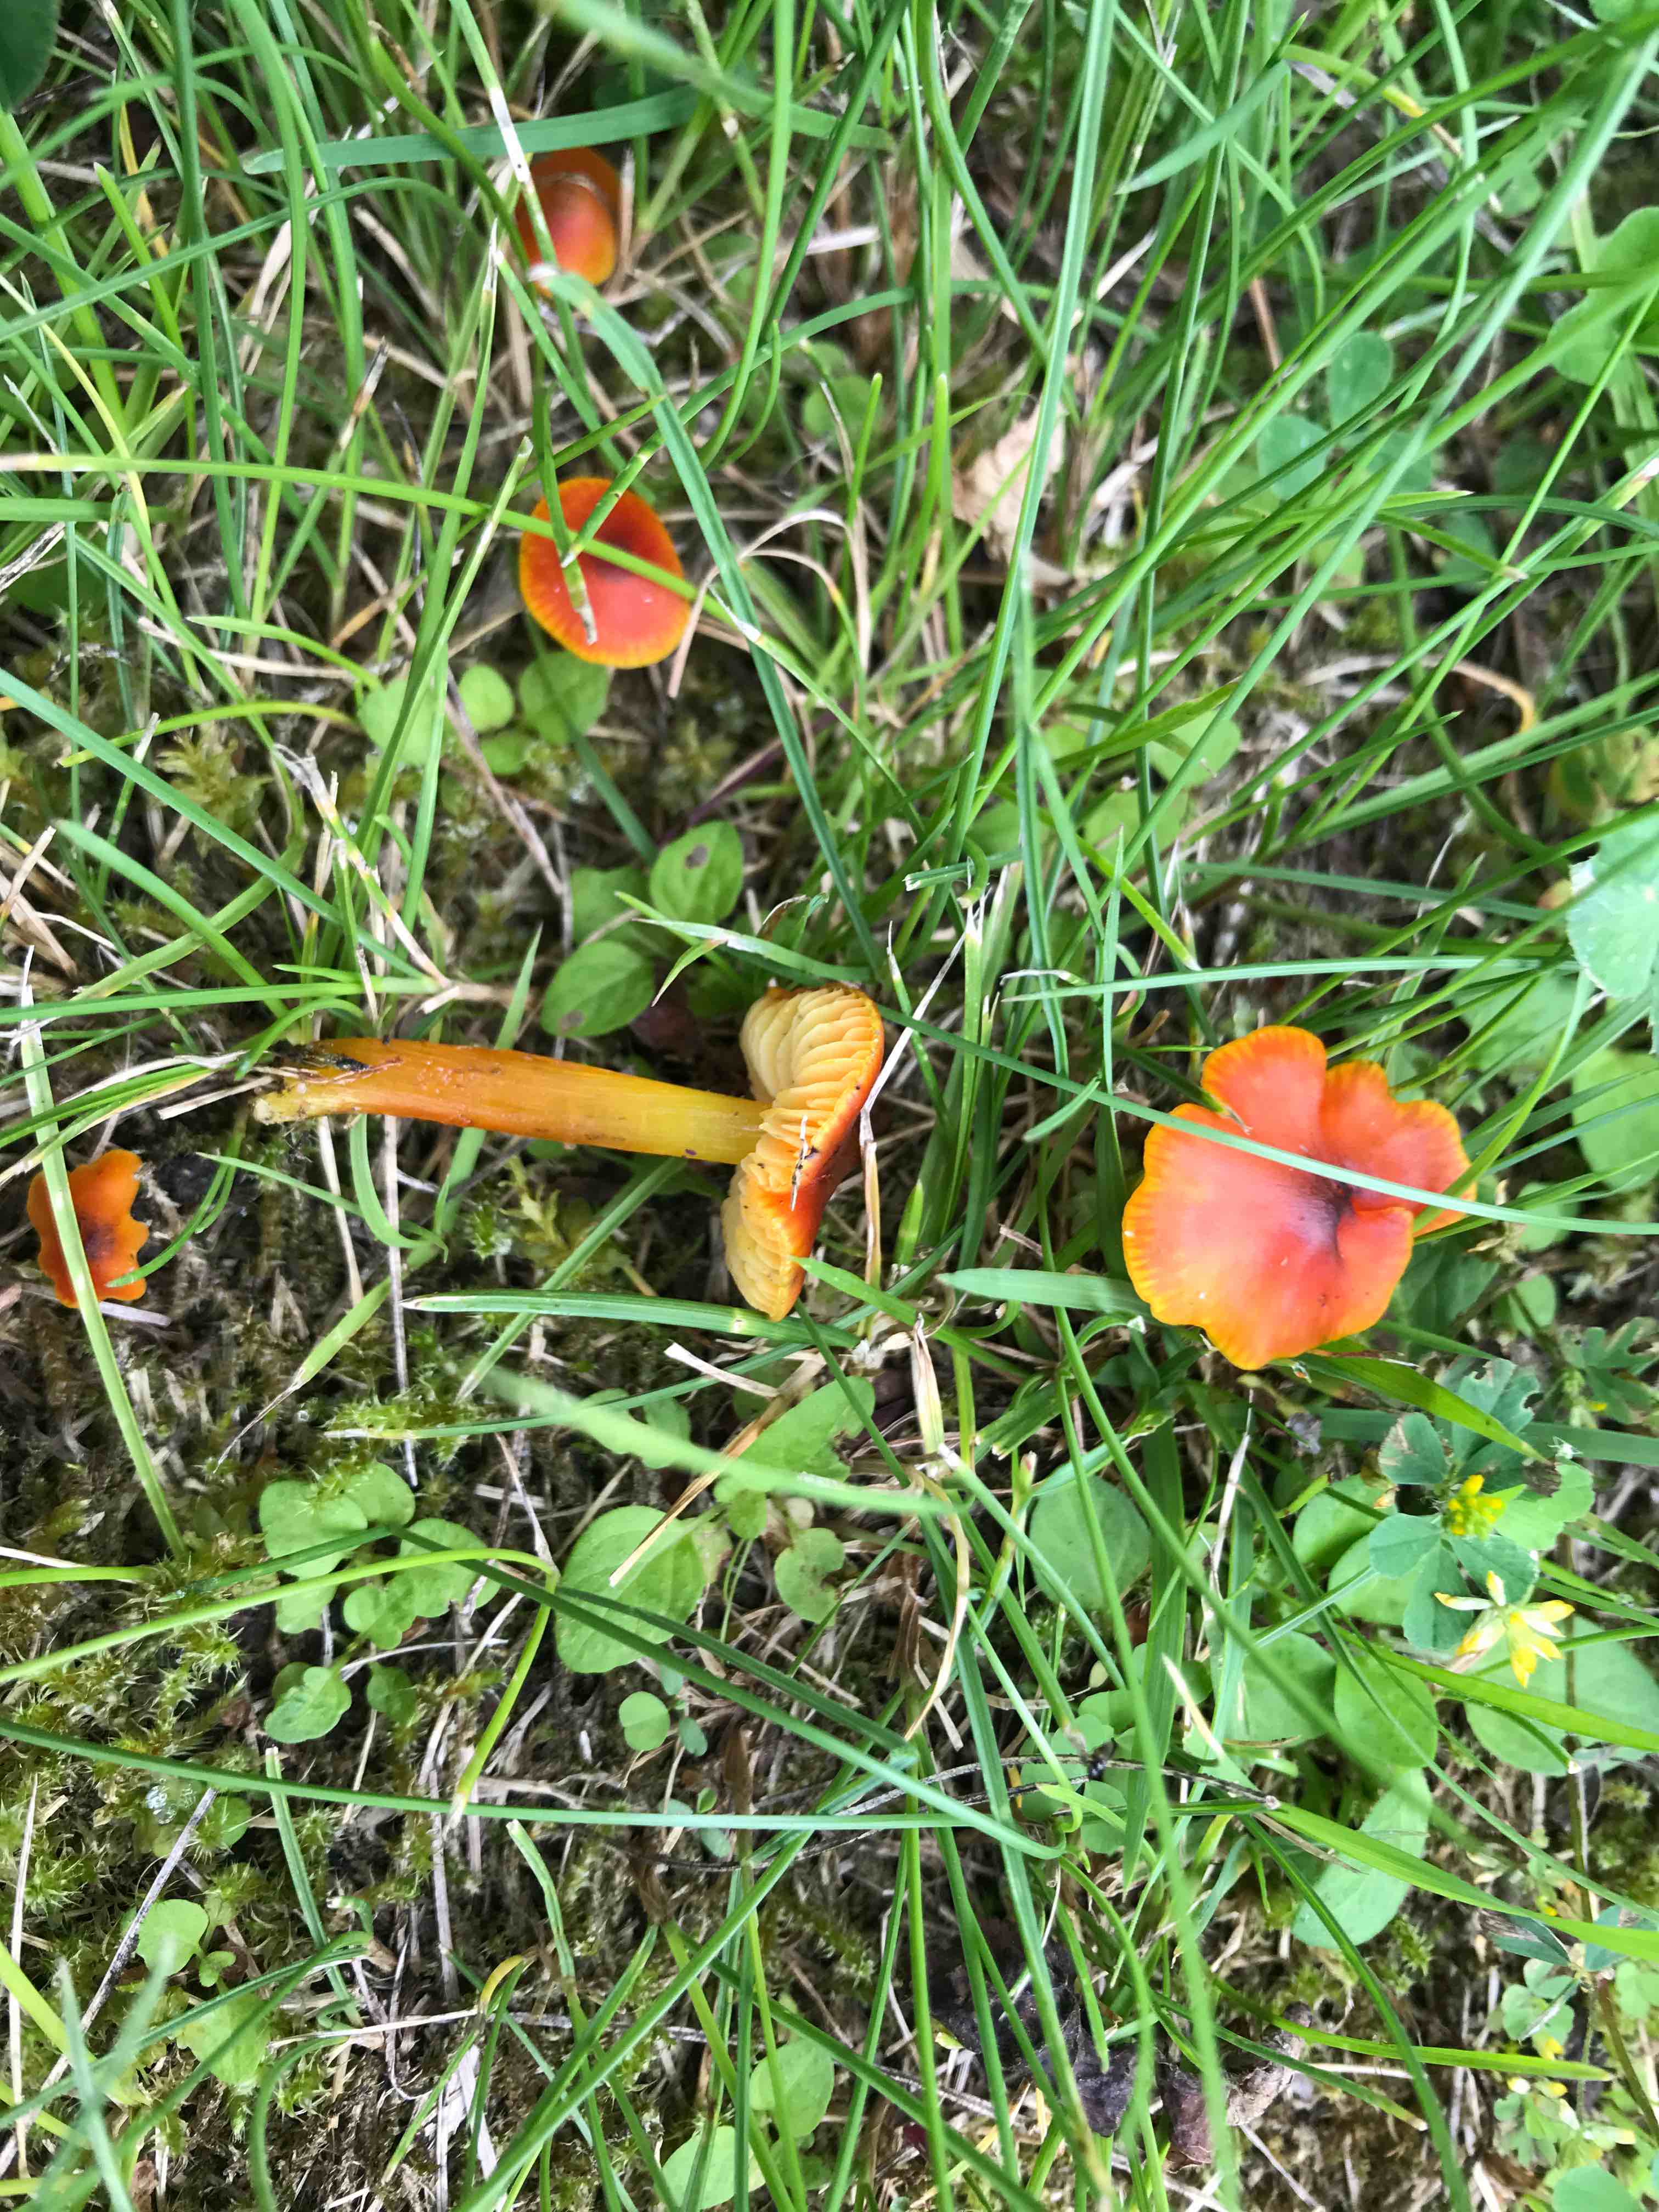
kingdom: Fungi
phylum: Basidiomycota
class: Agaricomycetes
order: Agaricales
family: Hygrophoraceae
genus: Hygrocybe
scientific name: Hygrocybe conica
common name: kegle-vokshat
